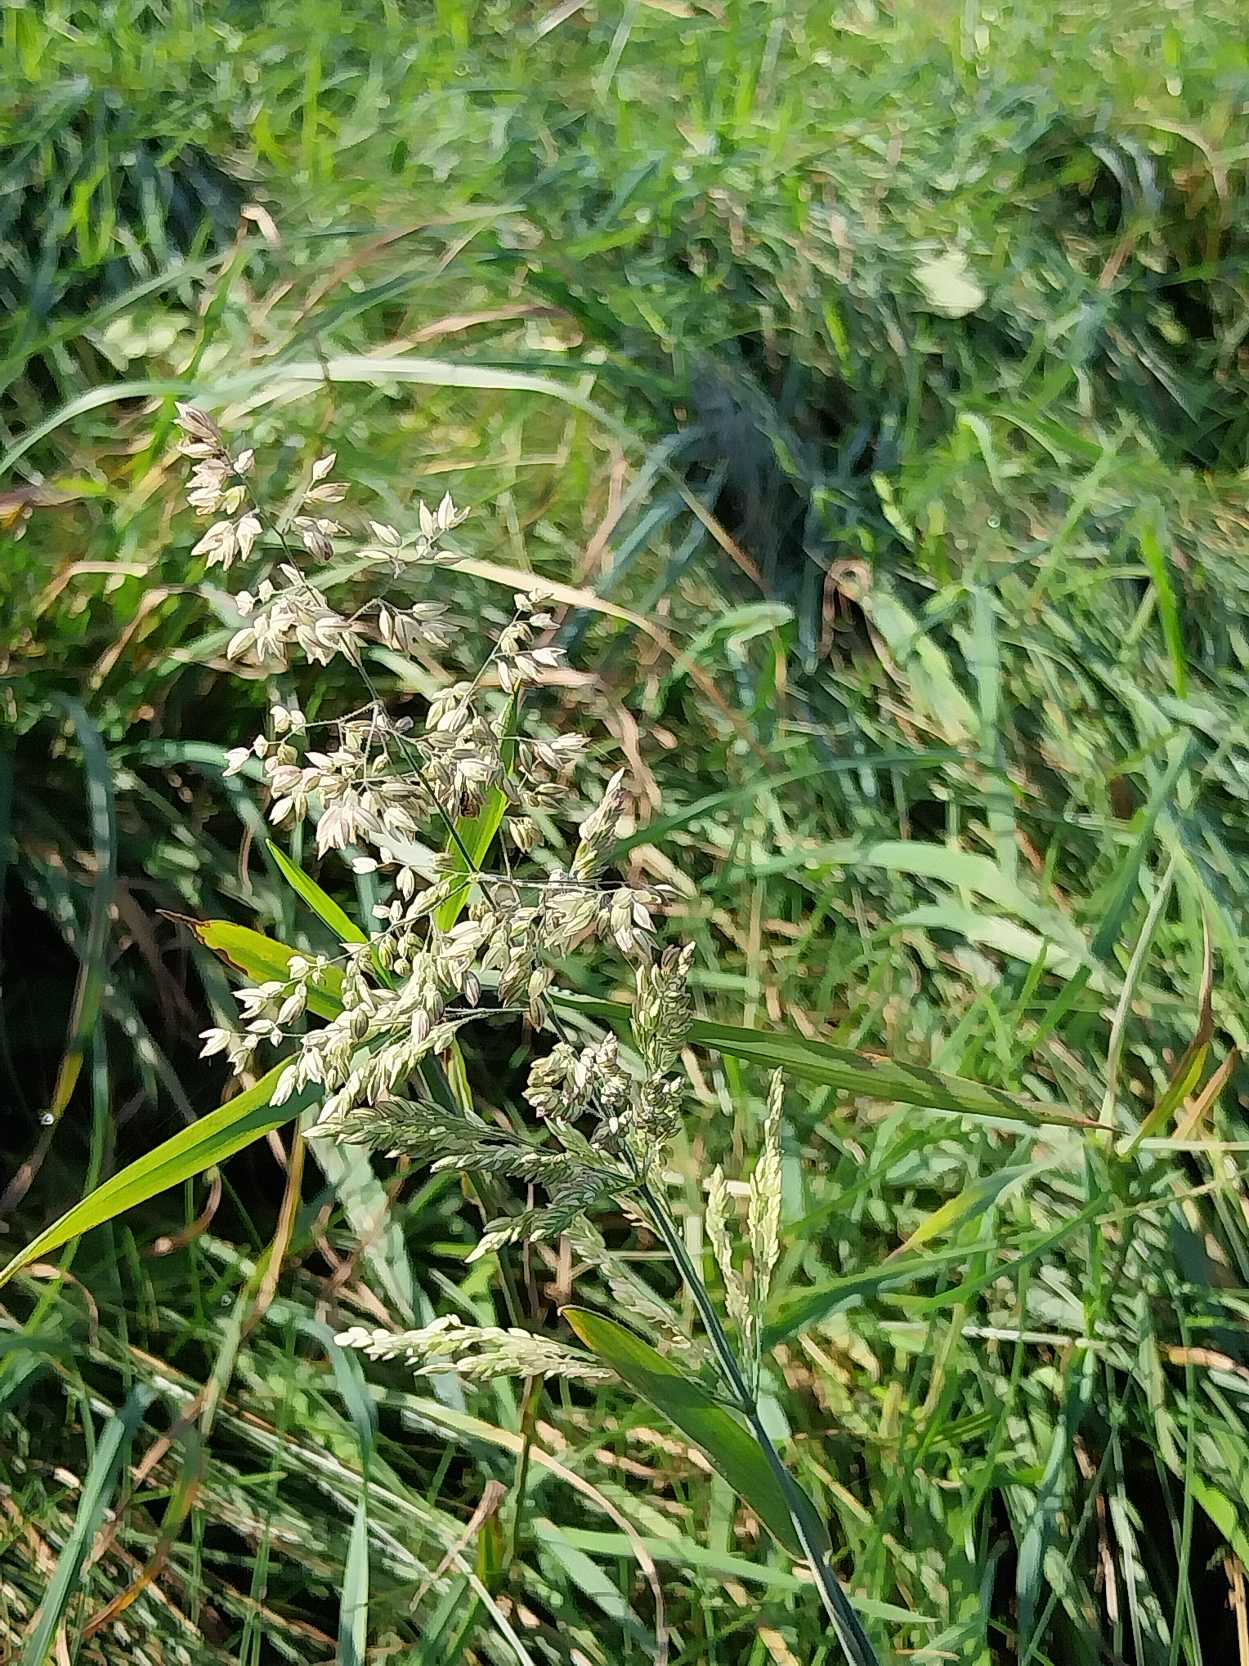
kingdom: Plantae
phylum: Tracheophyta
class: Liliopsida
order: Poales
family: Poaceae
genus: Holcus
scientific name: Holcus lanatus
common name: Fløjlsgræs
